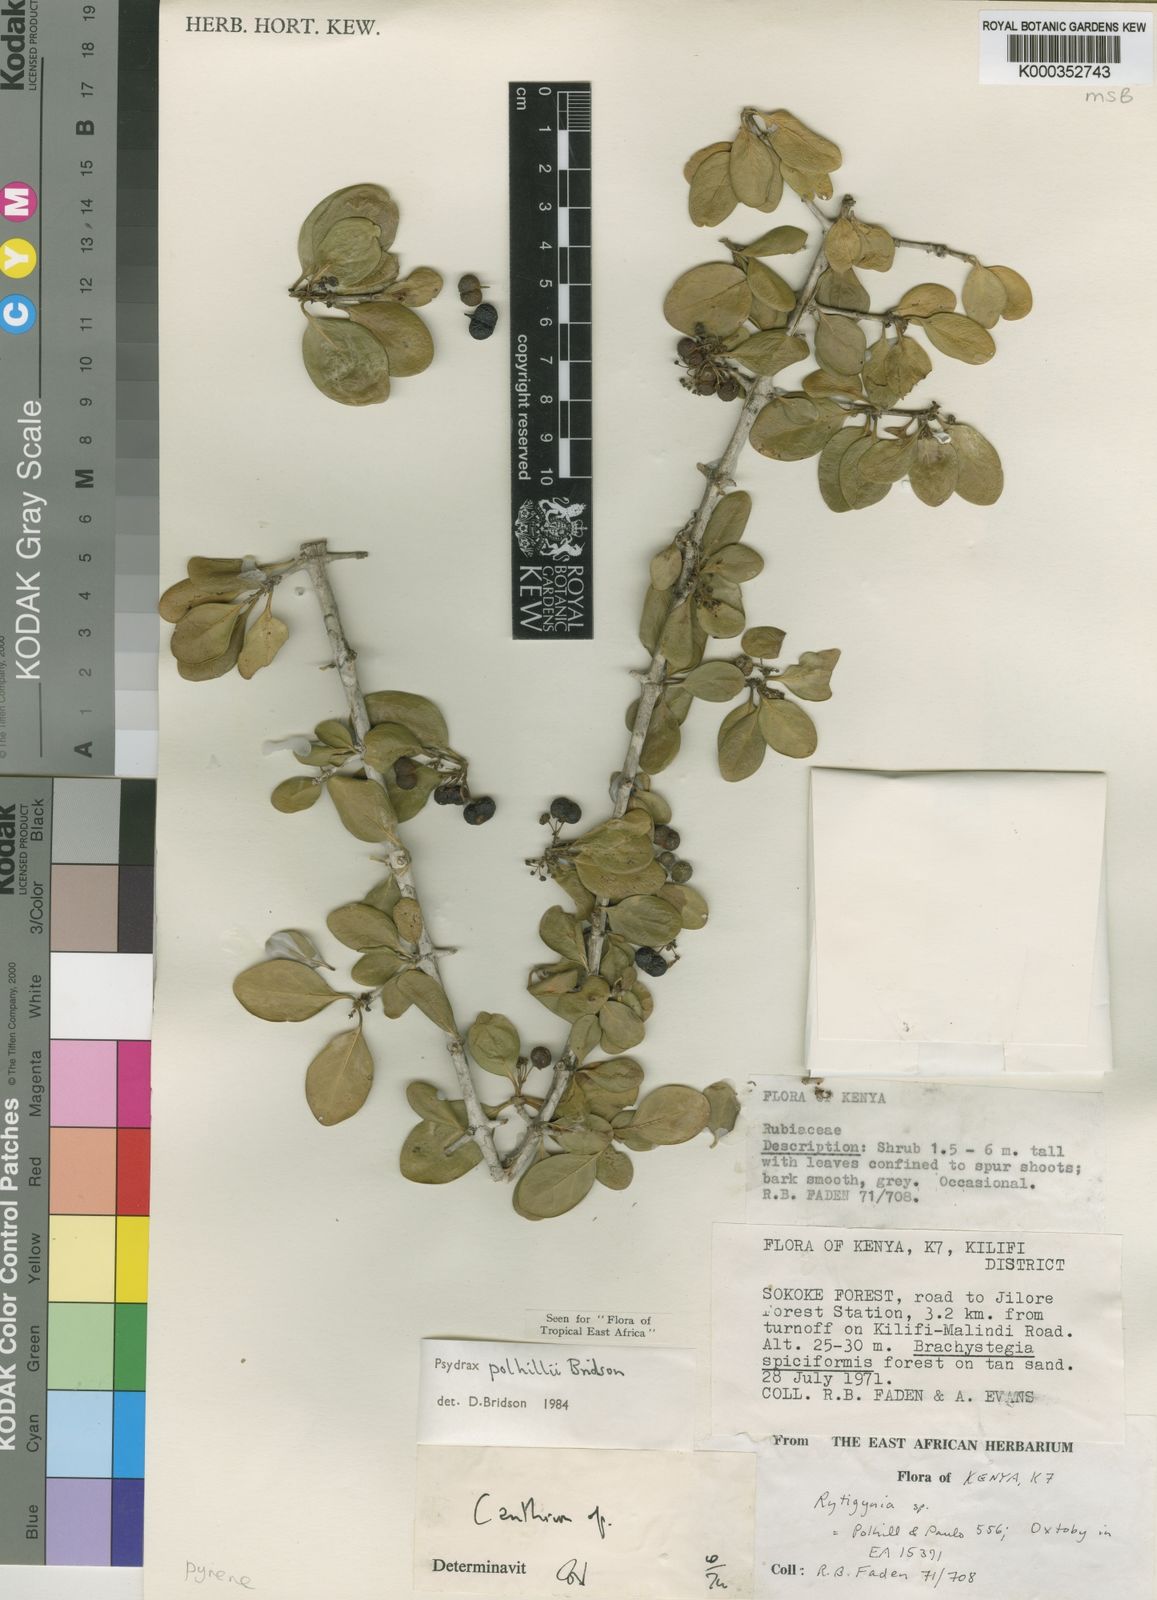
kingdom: Plantae
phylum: Tracheophyta
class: Magnoliopsida
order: Gentianales
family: Rubiaceae
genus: Psydrax
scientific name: Psydrax polhillii
